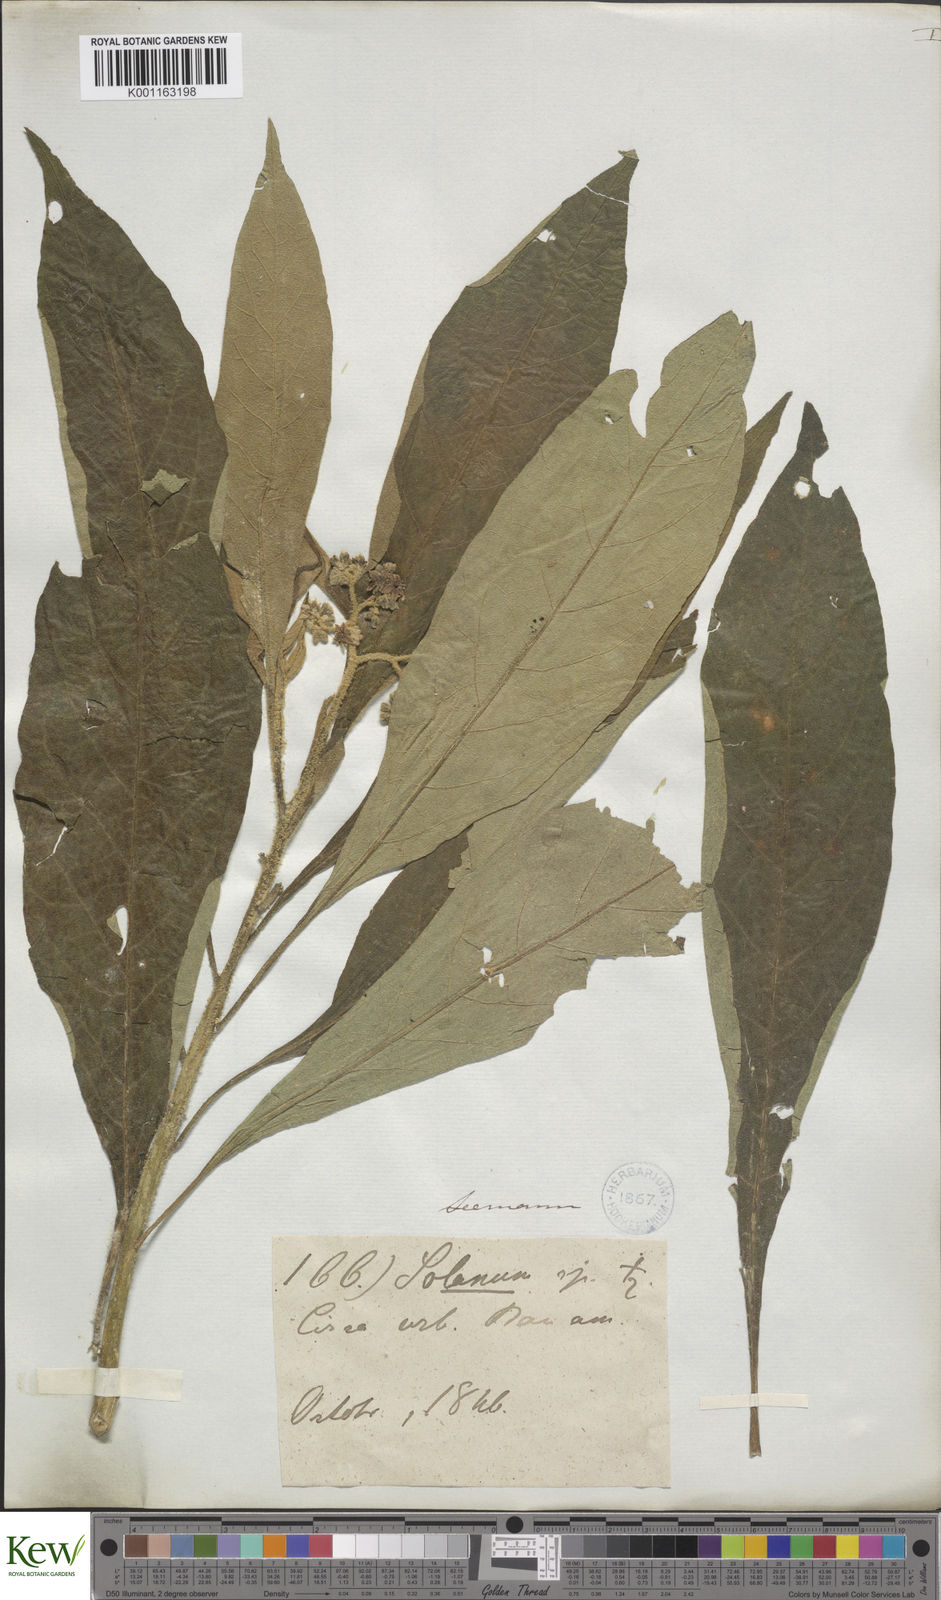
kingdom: Plantae
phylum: Tracheophyta
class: Magnoliopsida
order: Solanales
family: Solanaceae
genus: Solanum
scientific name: Solanum bicolor
